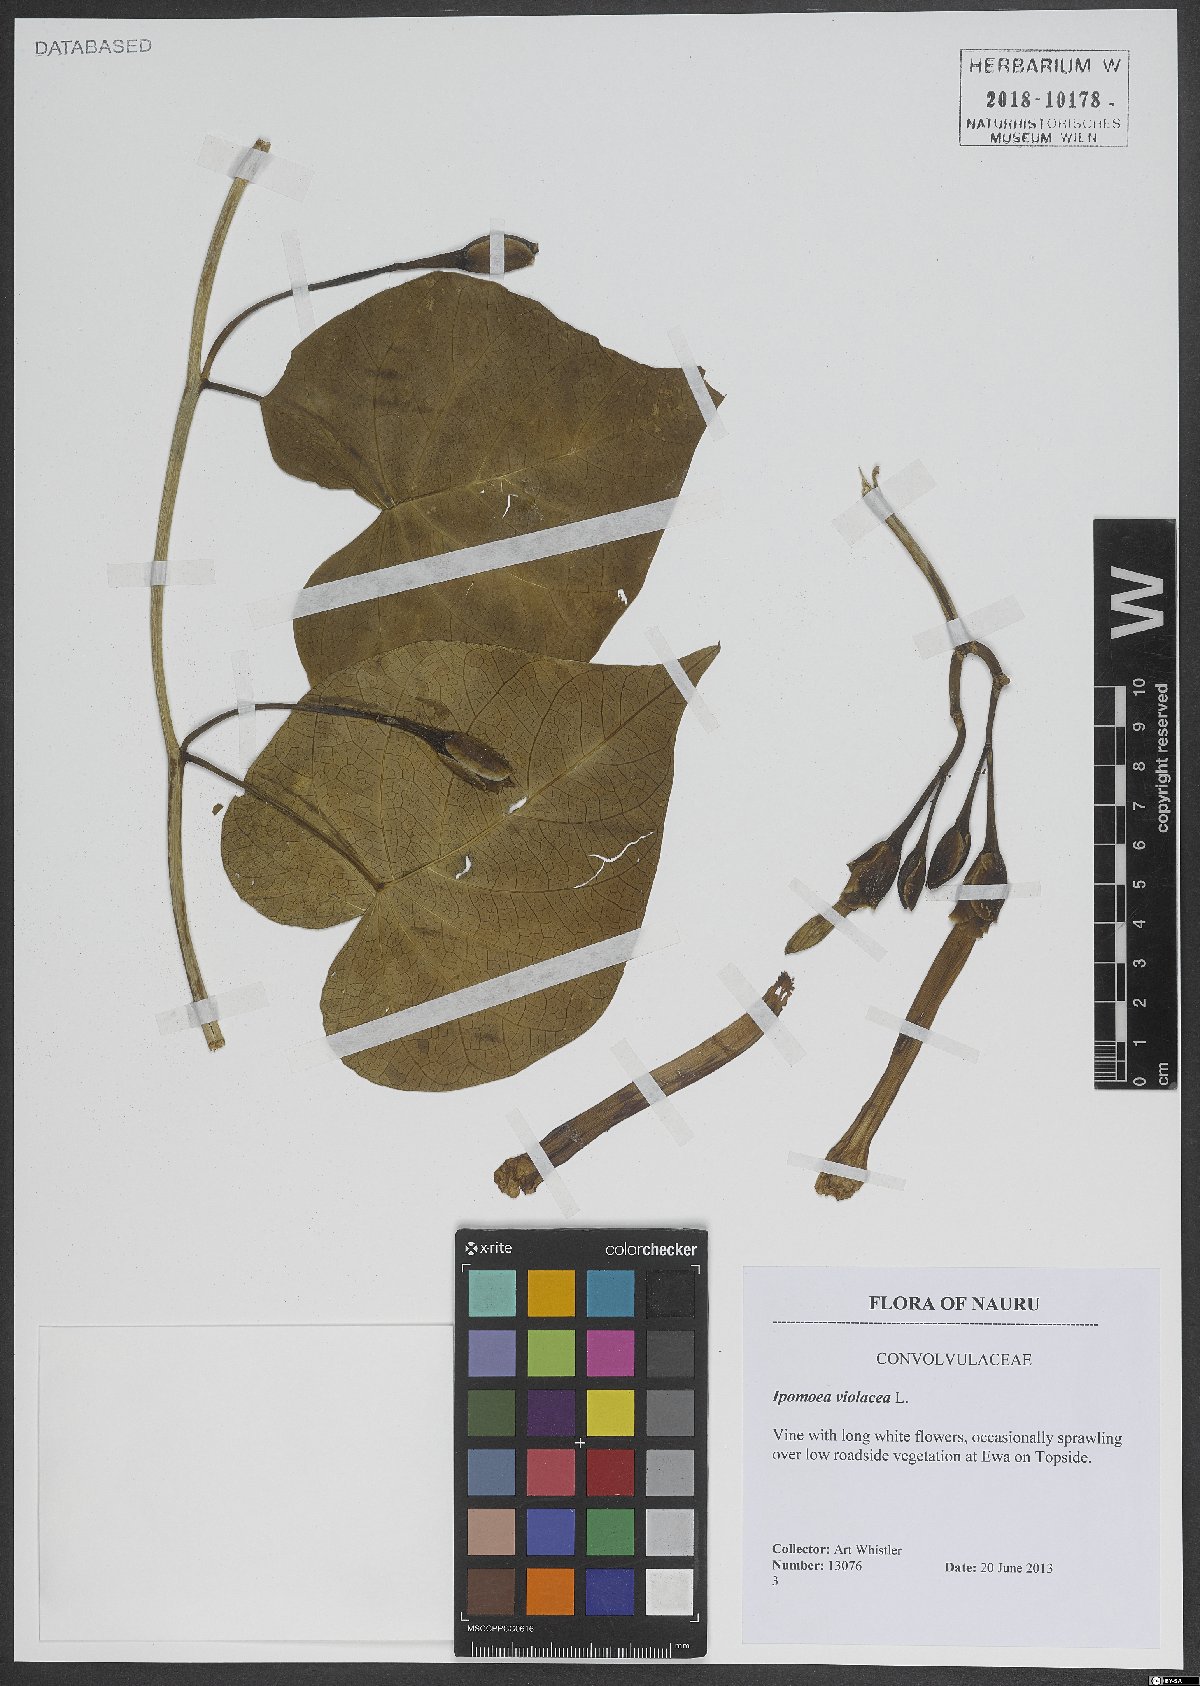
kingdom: Plantae
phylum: Tracheophyta
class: Magnoliopsida
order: Solanales
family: Convolvulaceae
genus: Ipomoea
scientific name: Ipomoea violacea
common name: Beach moonflower
